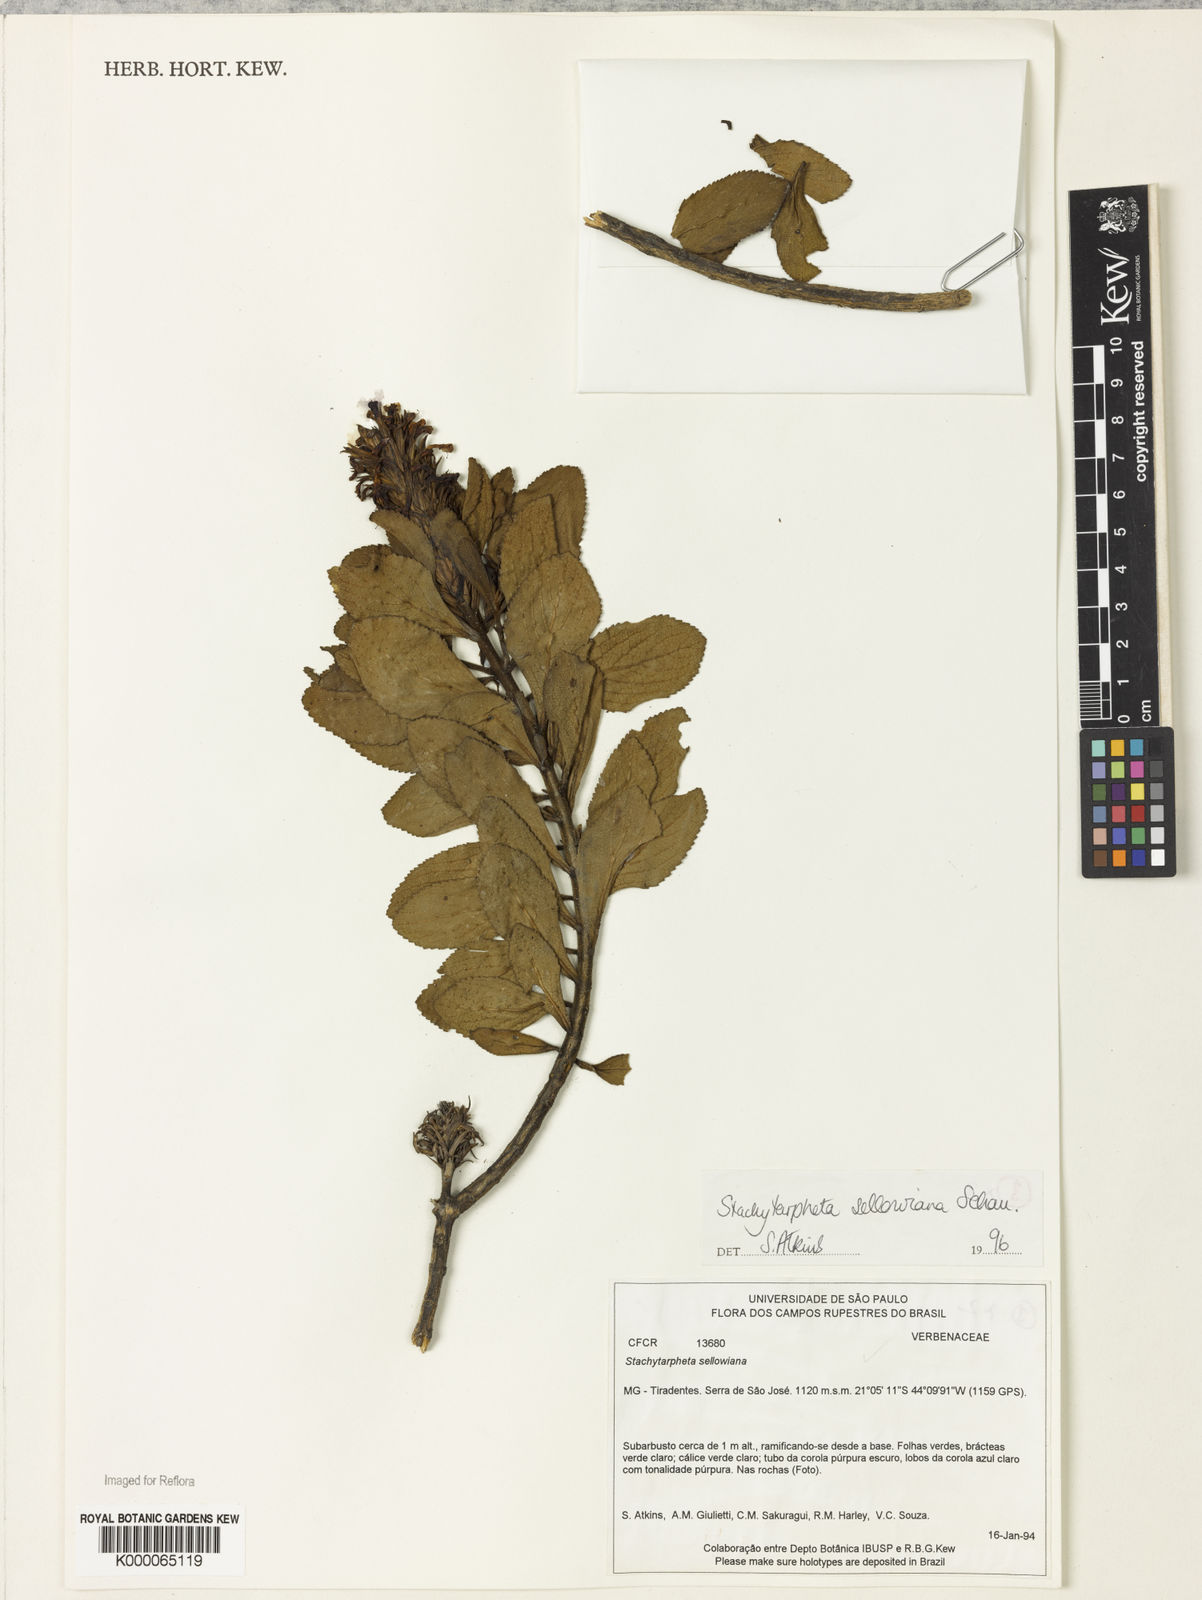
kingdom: Plantae
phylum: Tracheophyta
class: Magnoliopsida
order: Lamiales
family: Verbenaceae
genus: Stachytarpheta
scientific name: Stachytarpheta sellowiana
